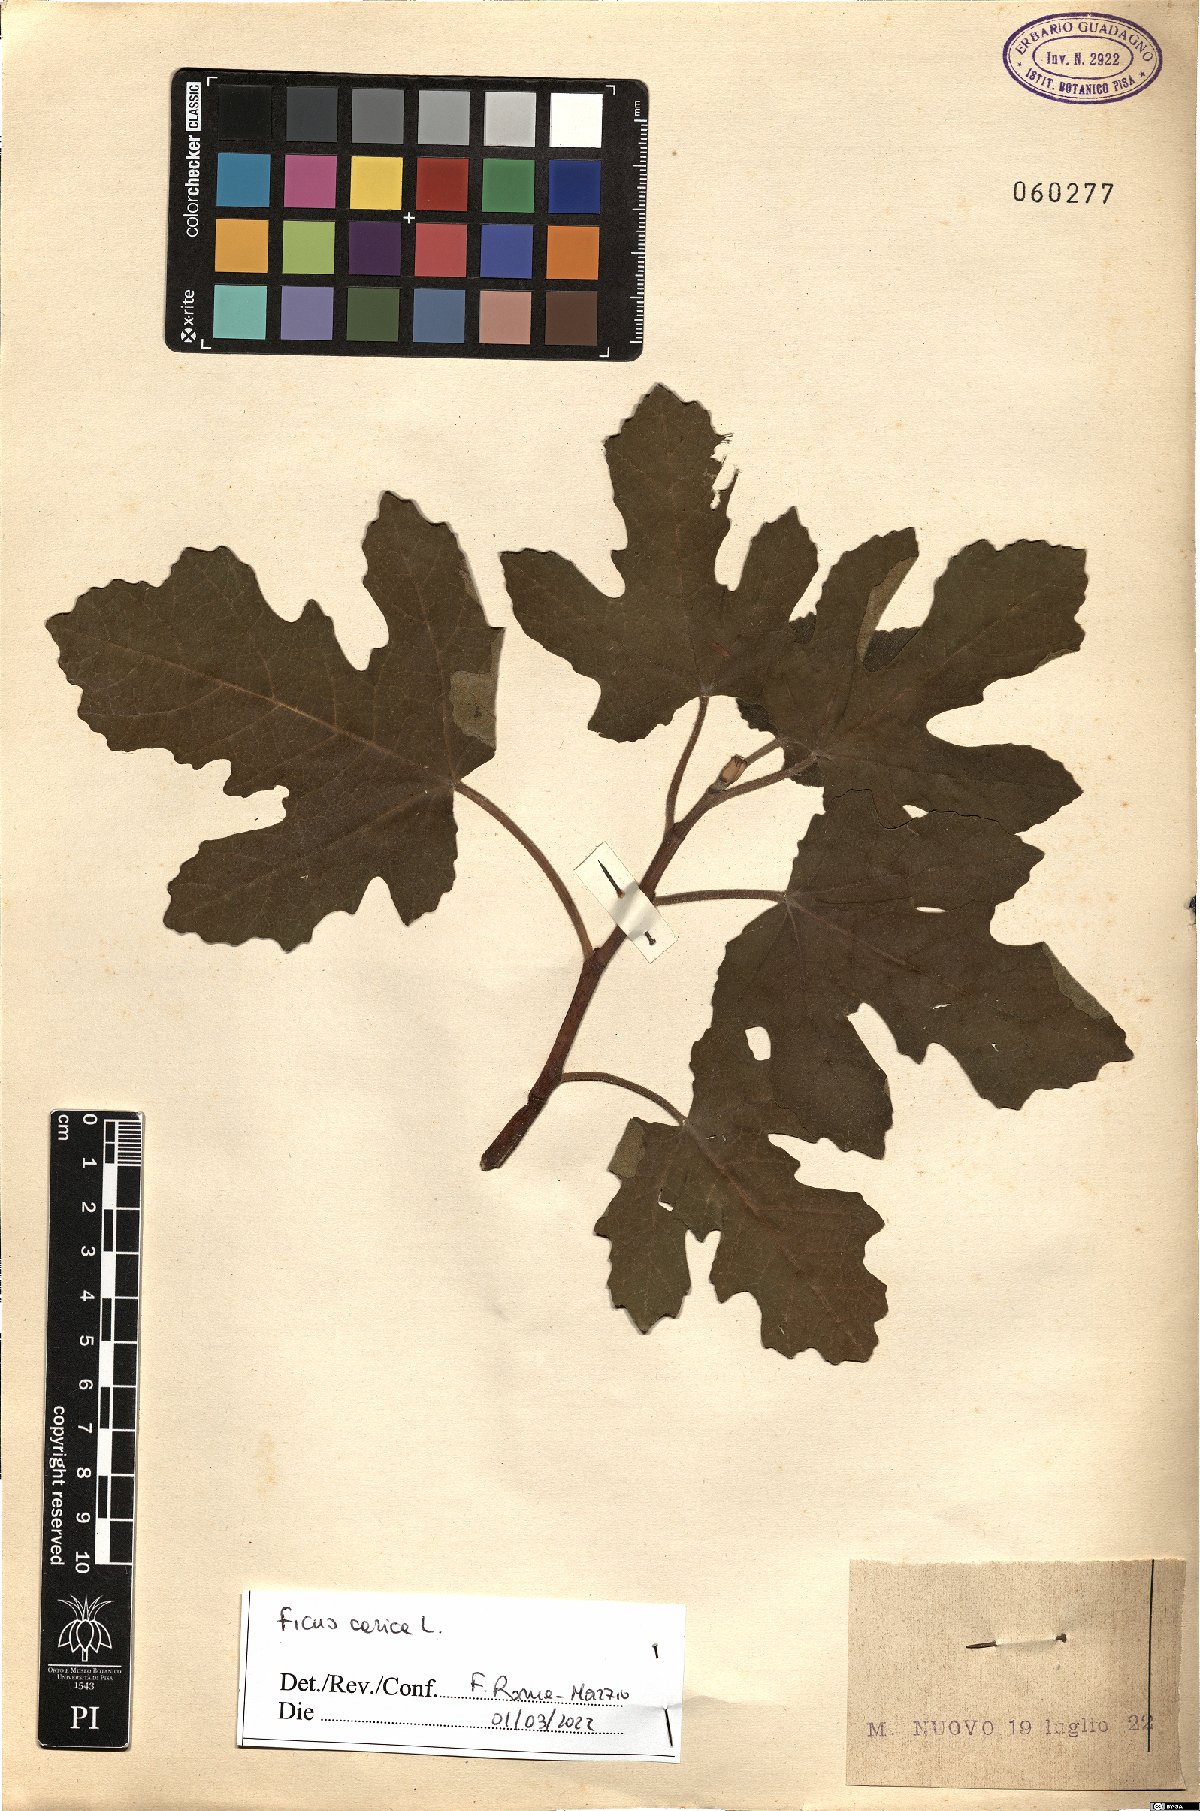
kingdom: Plantae
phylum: Tracheophyta
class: Magnoliopsida
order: Rosales
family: Moraceae
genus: Ficus
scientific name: Ficus carica
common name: Fig
